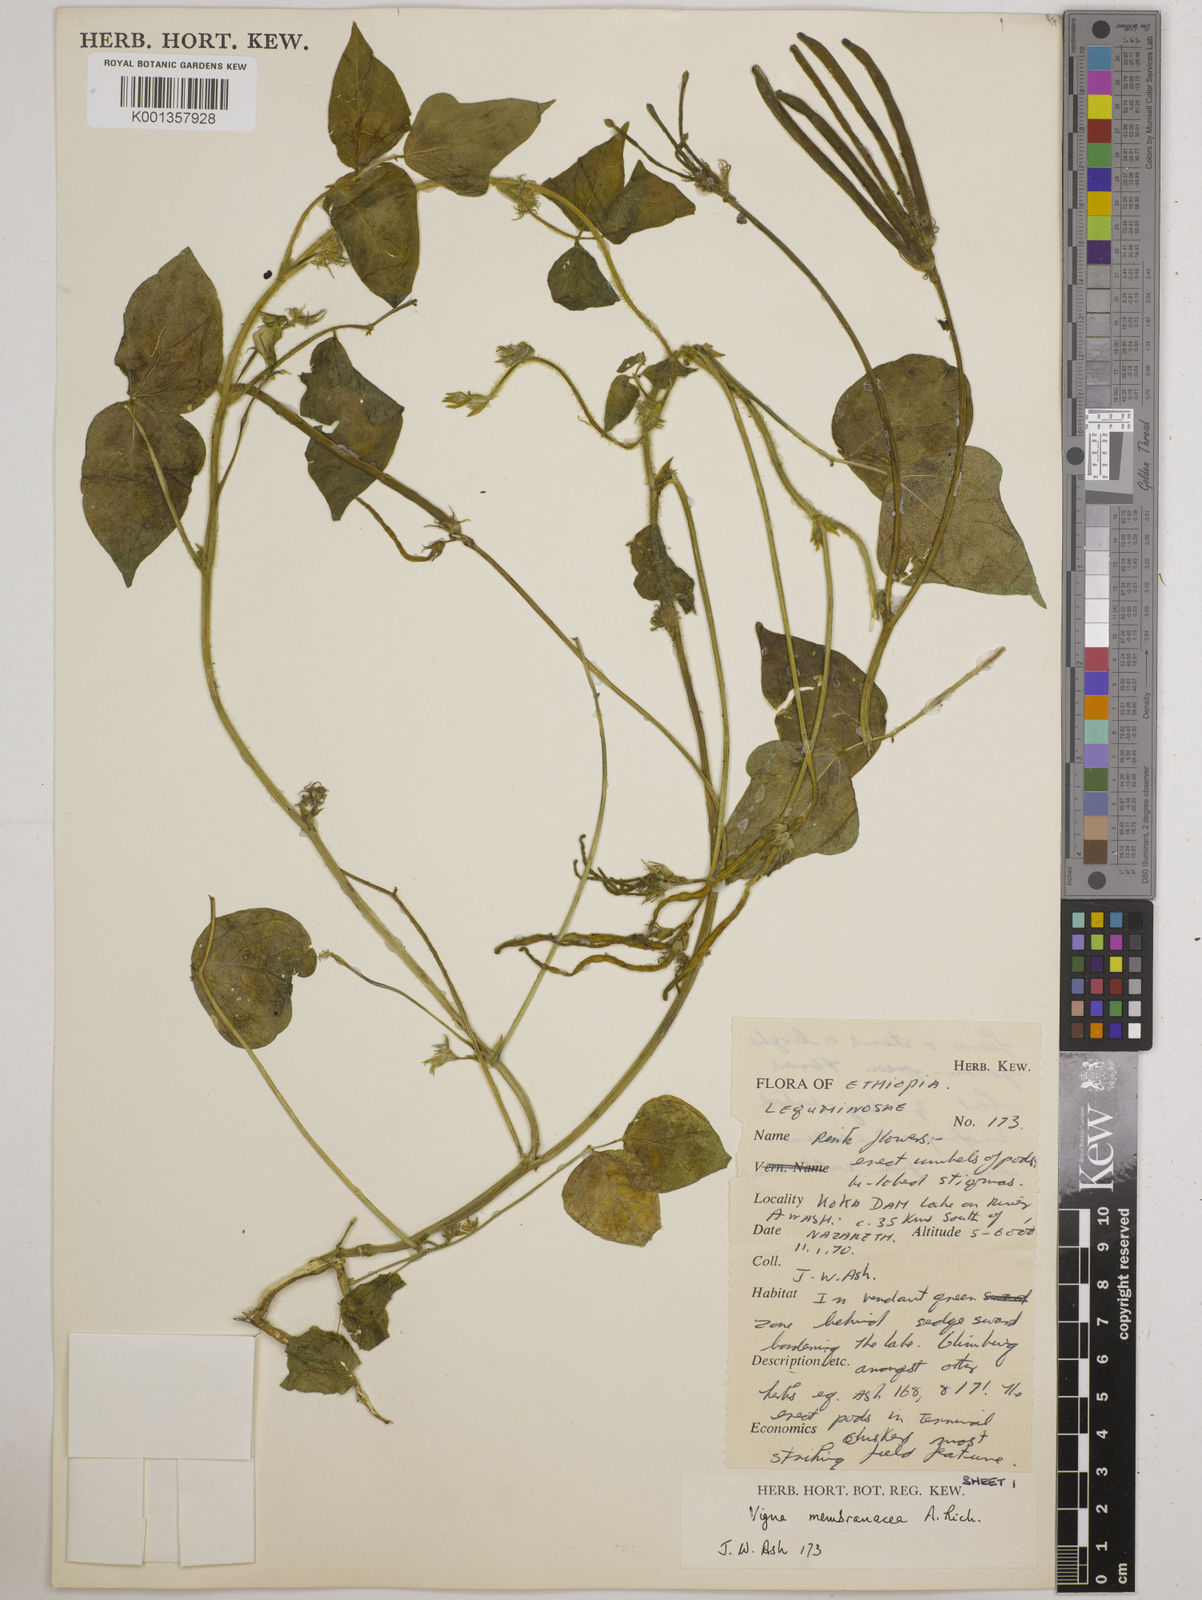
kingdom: Plantae
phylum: Tracheophyta
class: Magnoliopsida
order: Fabales
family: Fabaceae
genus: Vigna
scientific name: Vigna membranacea
